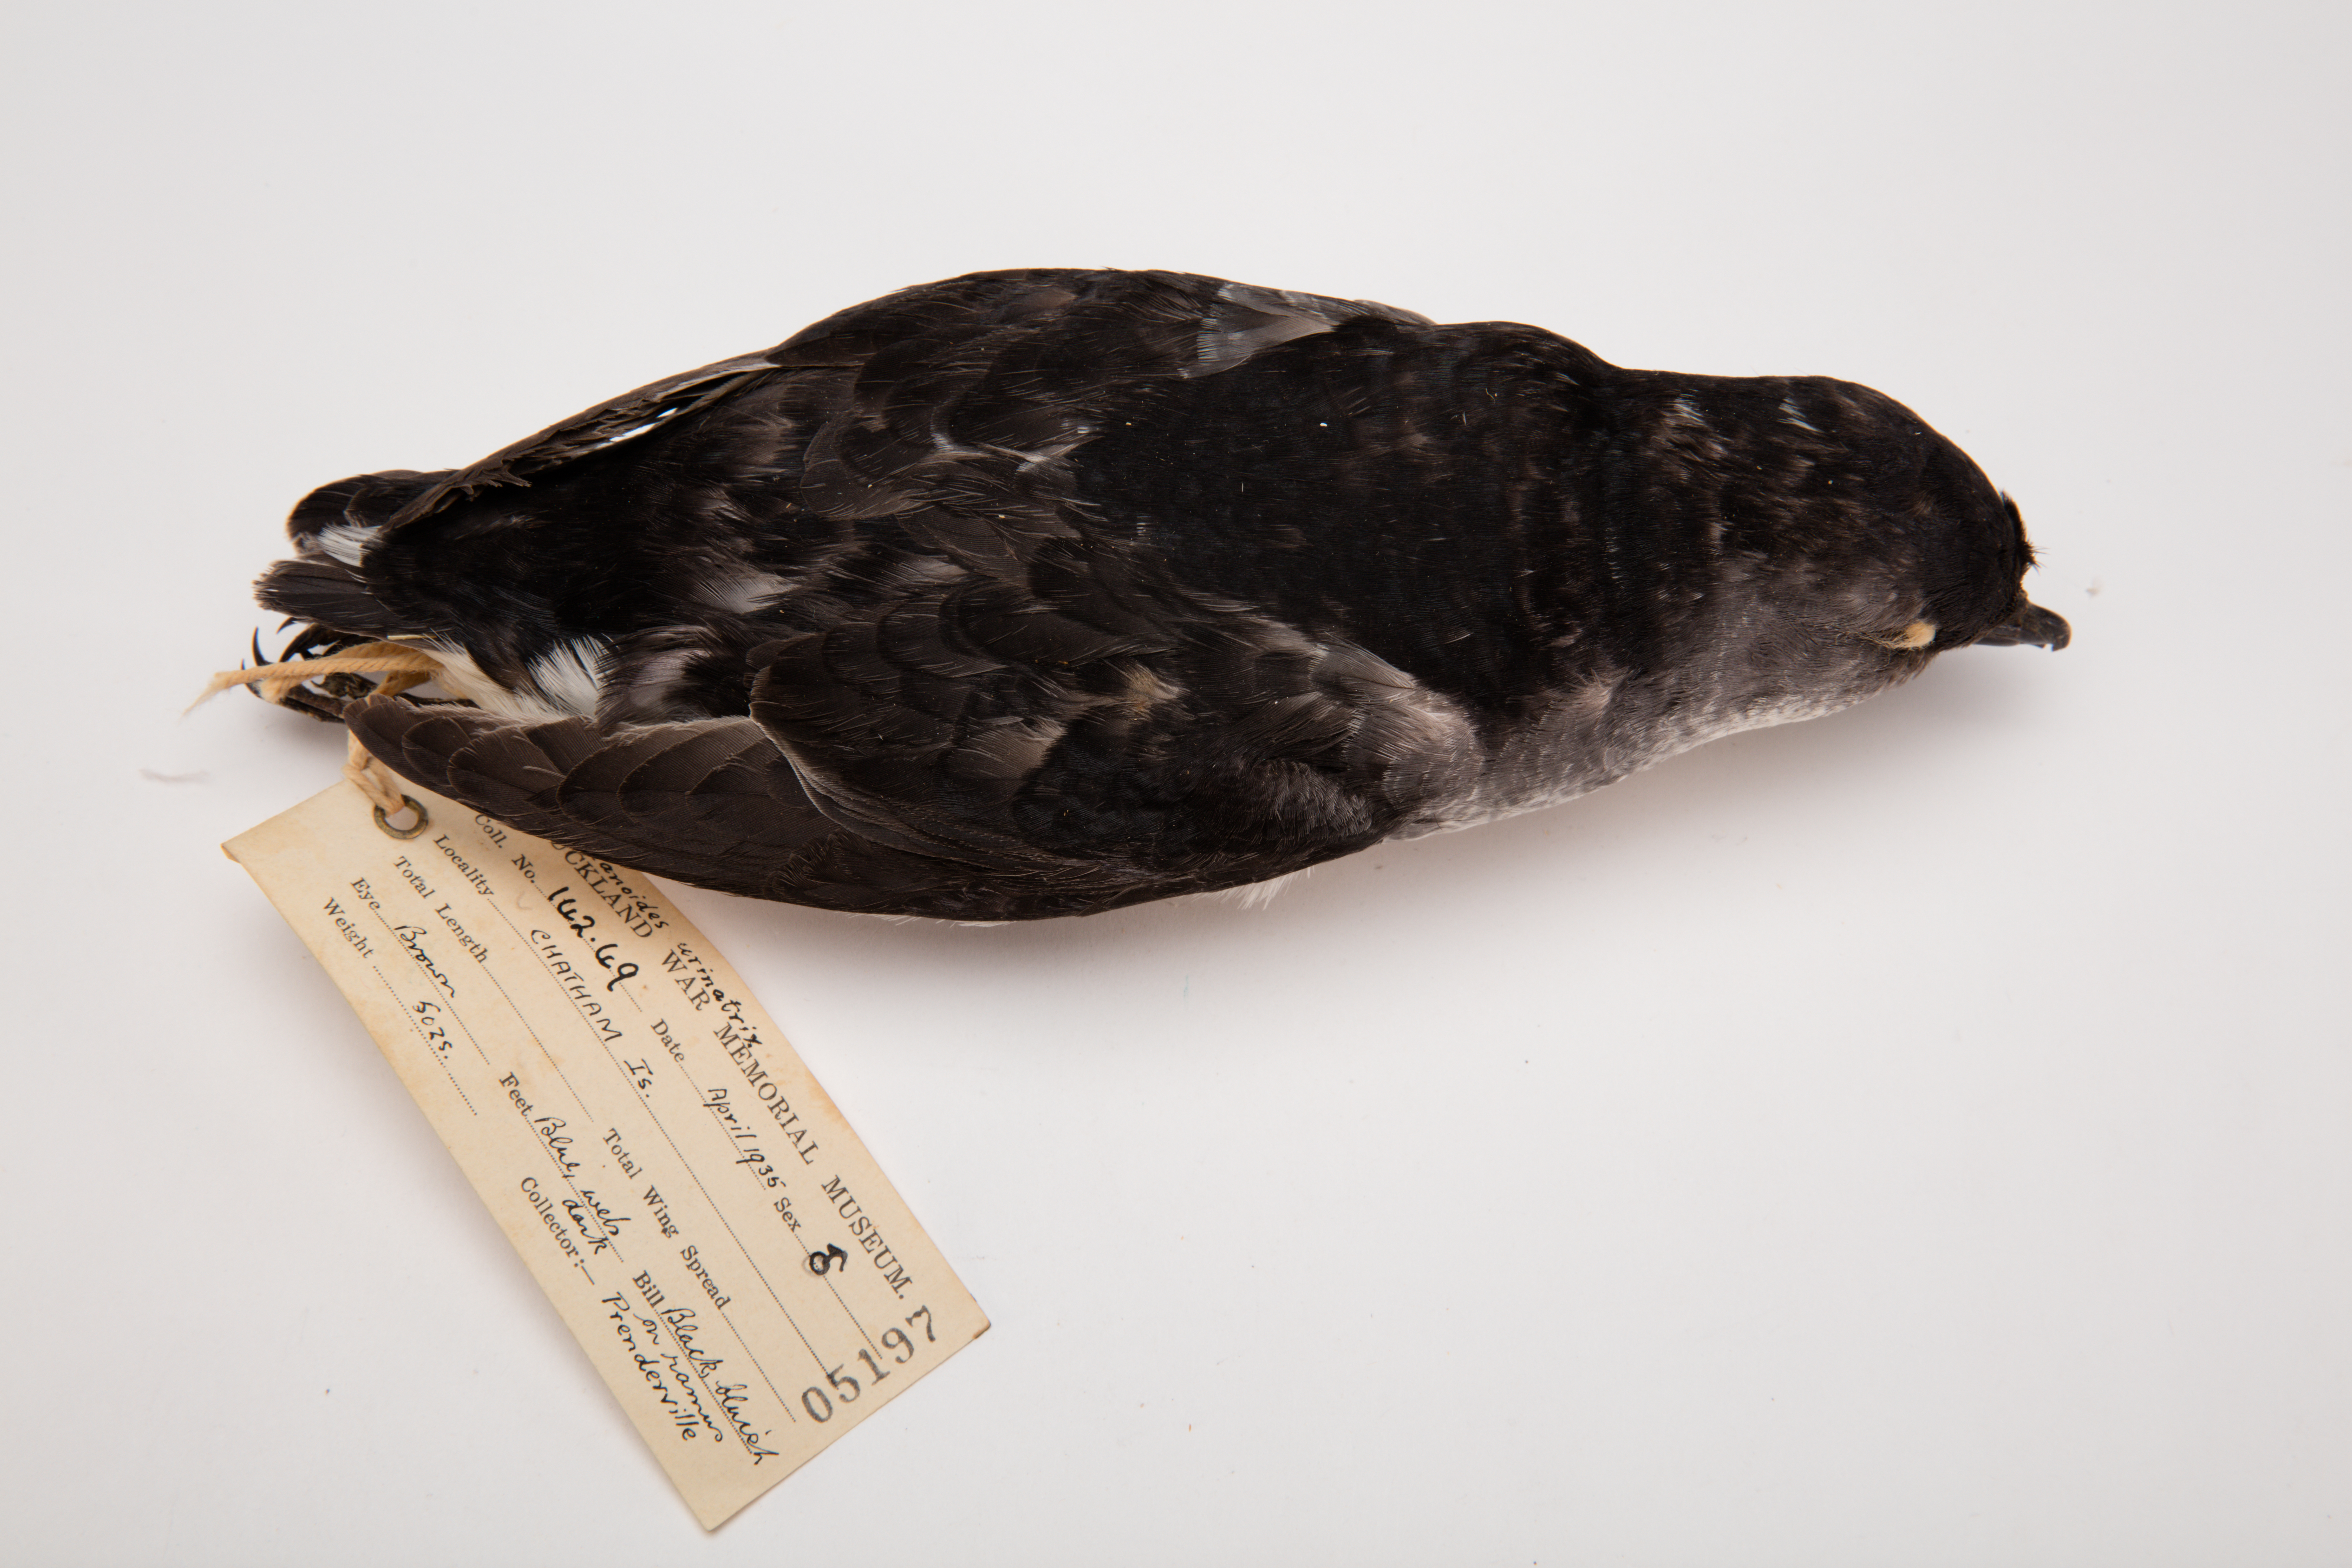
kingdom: Animalia
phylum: Chordata
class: Aves
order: Procellariiformes
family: Pelecanoididae
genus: Pelecanoides
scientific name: Pelecanoides urinatrix
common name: Common diving-petrel
